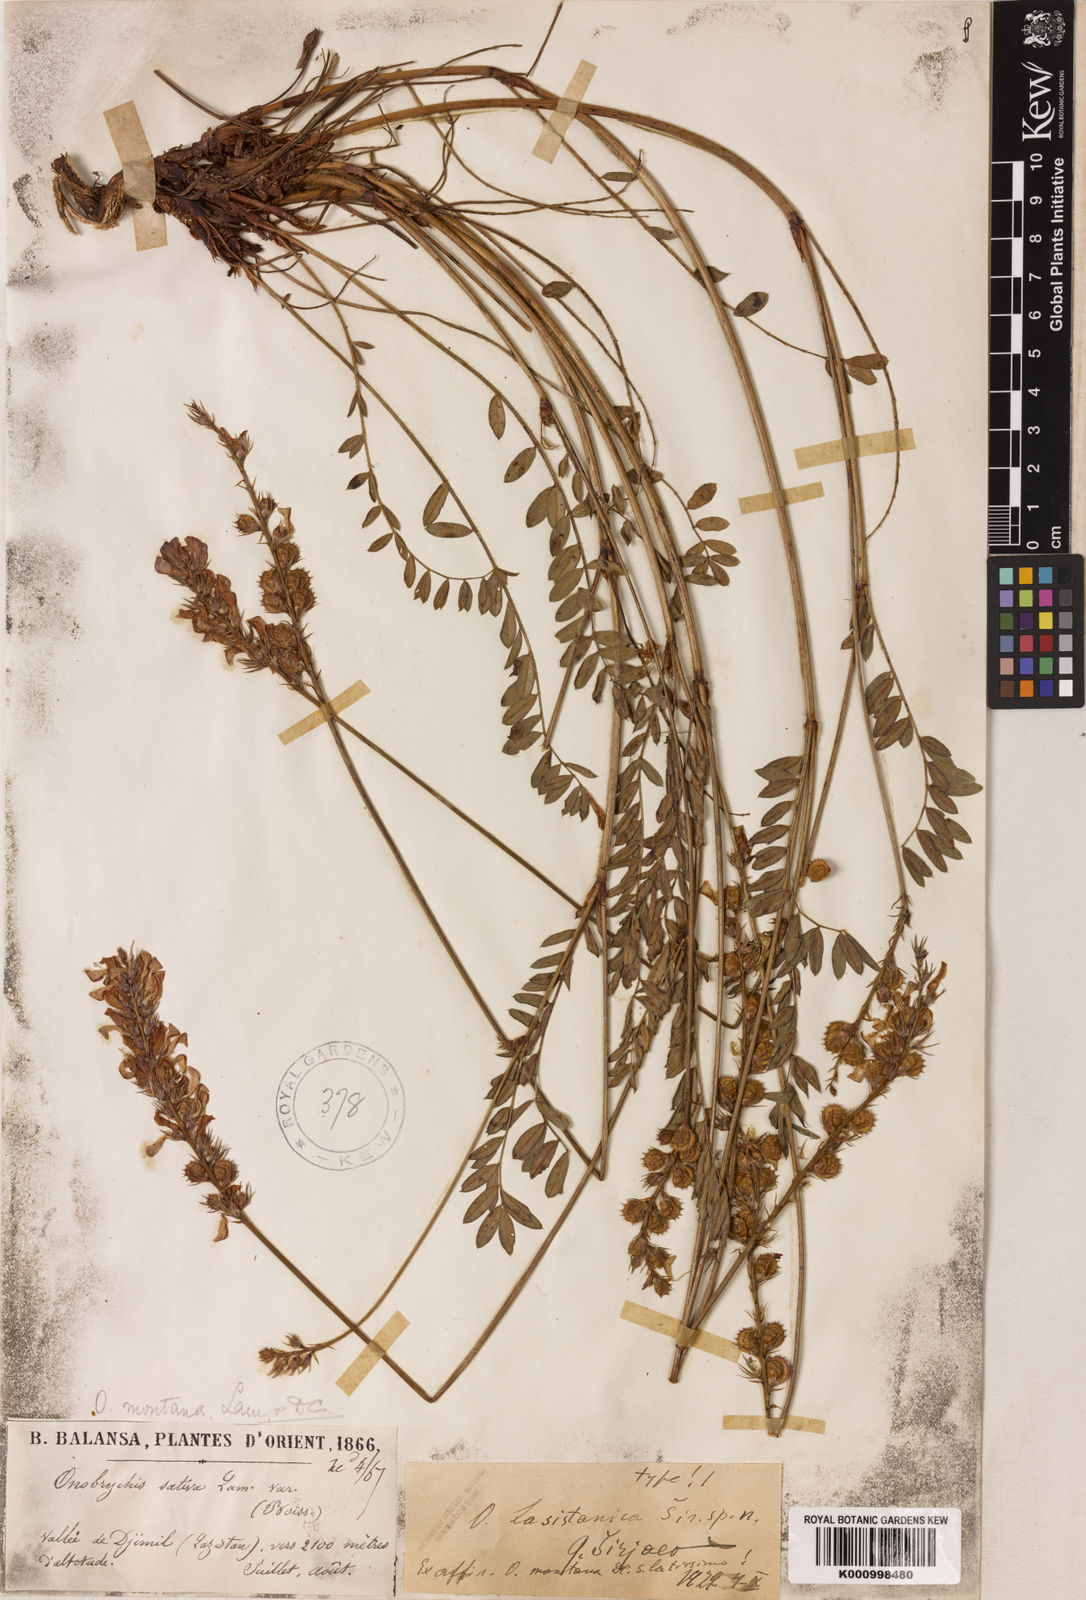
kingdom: Plantae
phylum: Tracheophyta
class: Magnoliopsida
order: Fabales
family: Fabaceae
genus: Onobrychis
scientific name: Onobrychis
